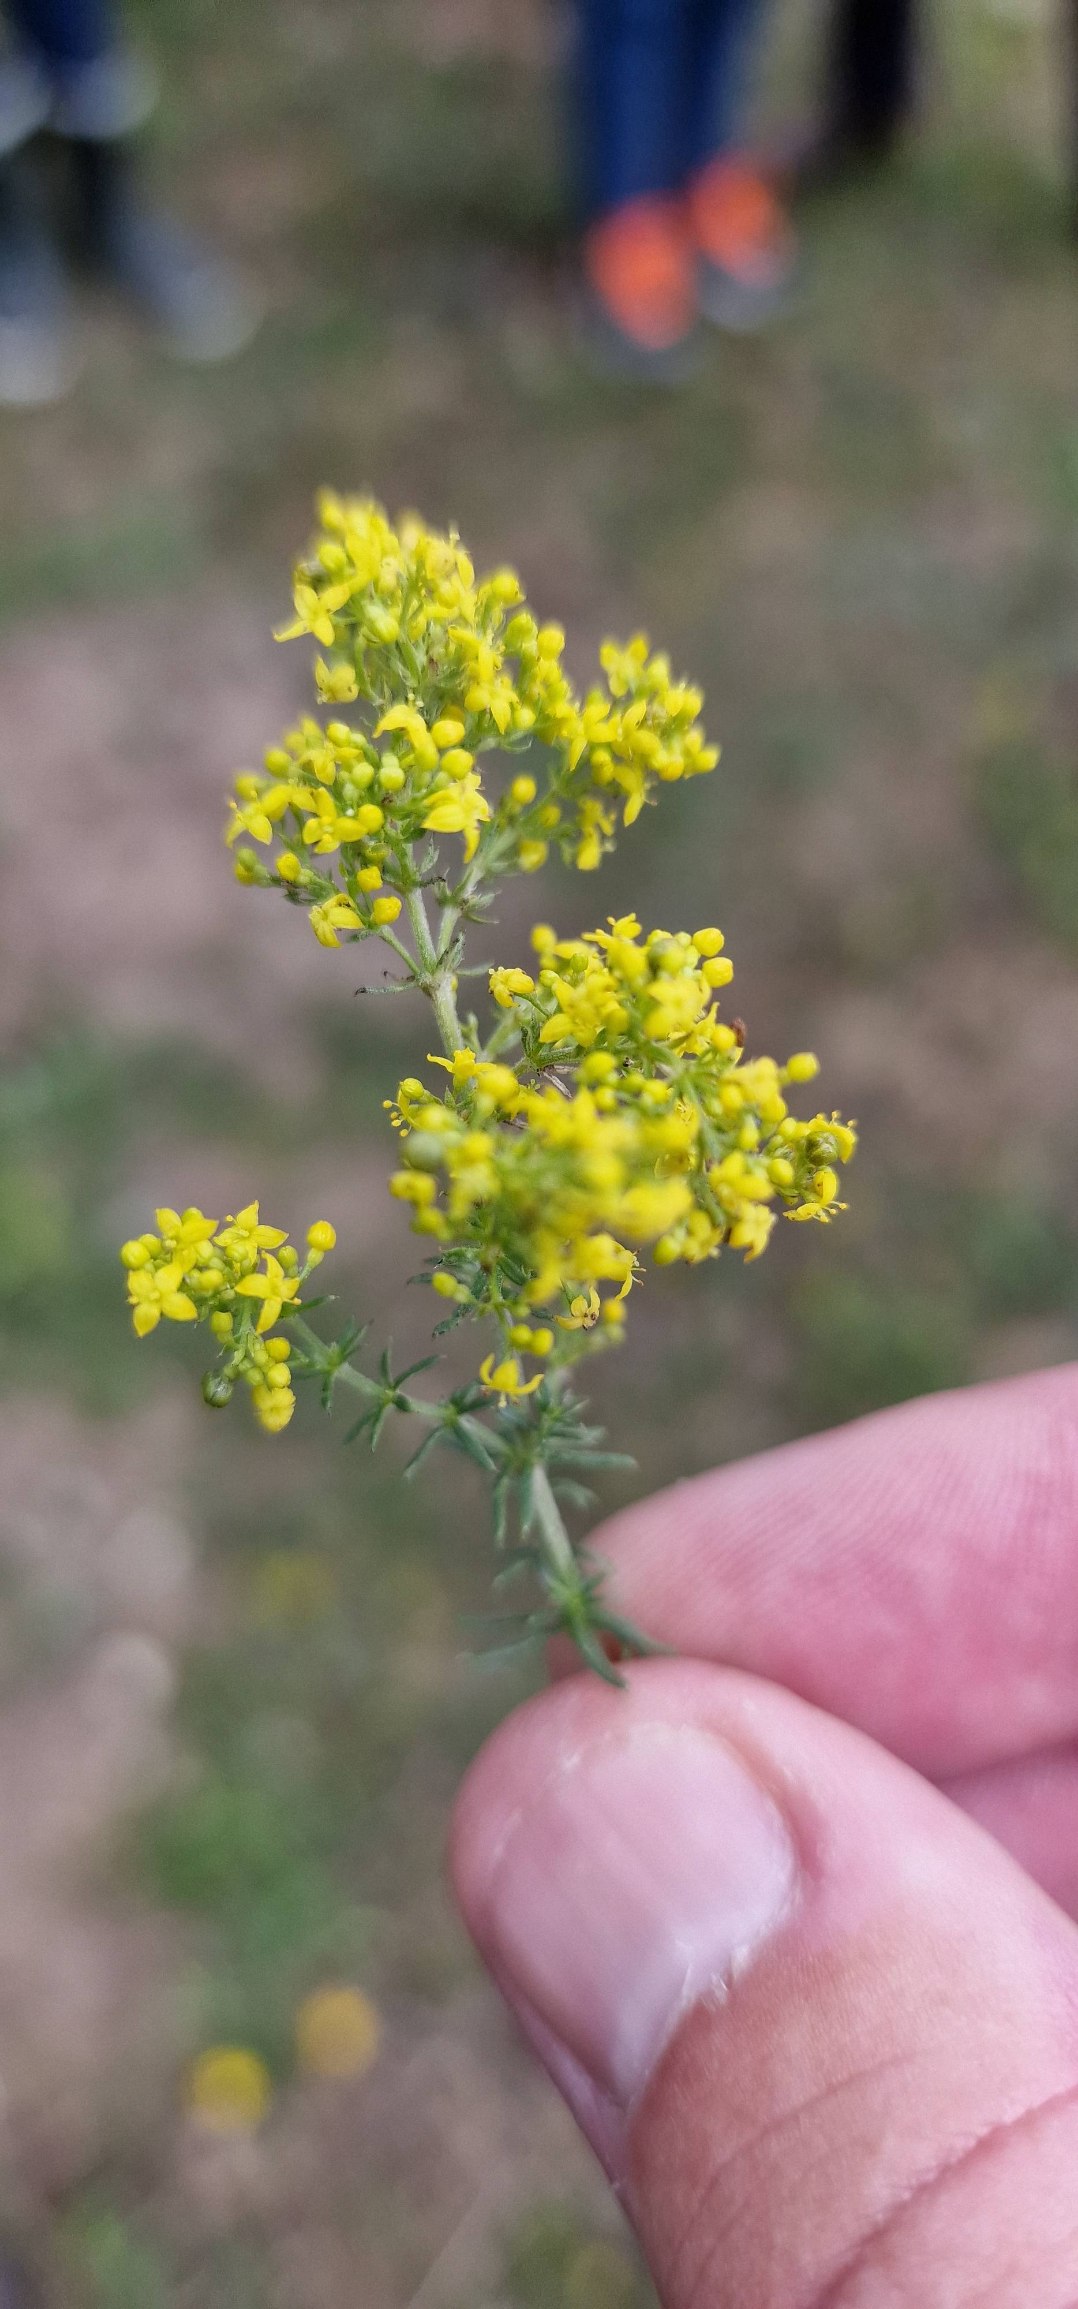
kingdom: Plantae
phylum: Tracheophyta
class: Magnoliopsida
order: Gentianales
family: Rubiaceae
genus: Galium
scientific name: Galium verum
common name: Gul snerre
